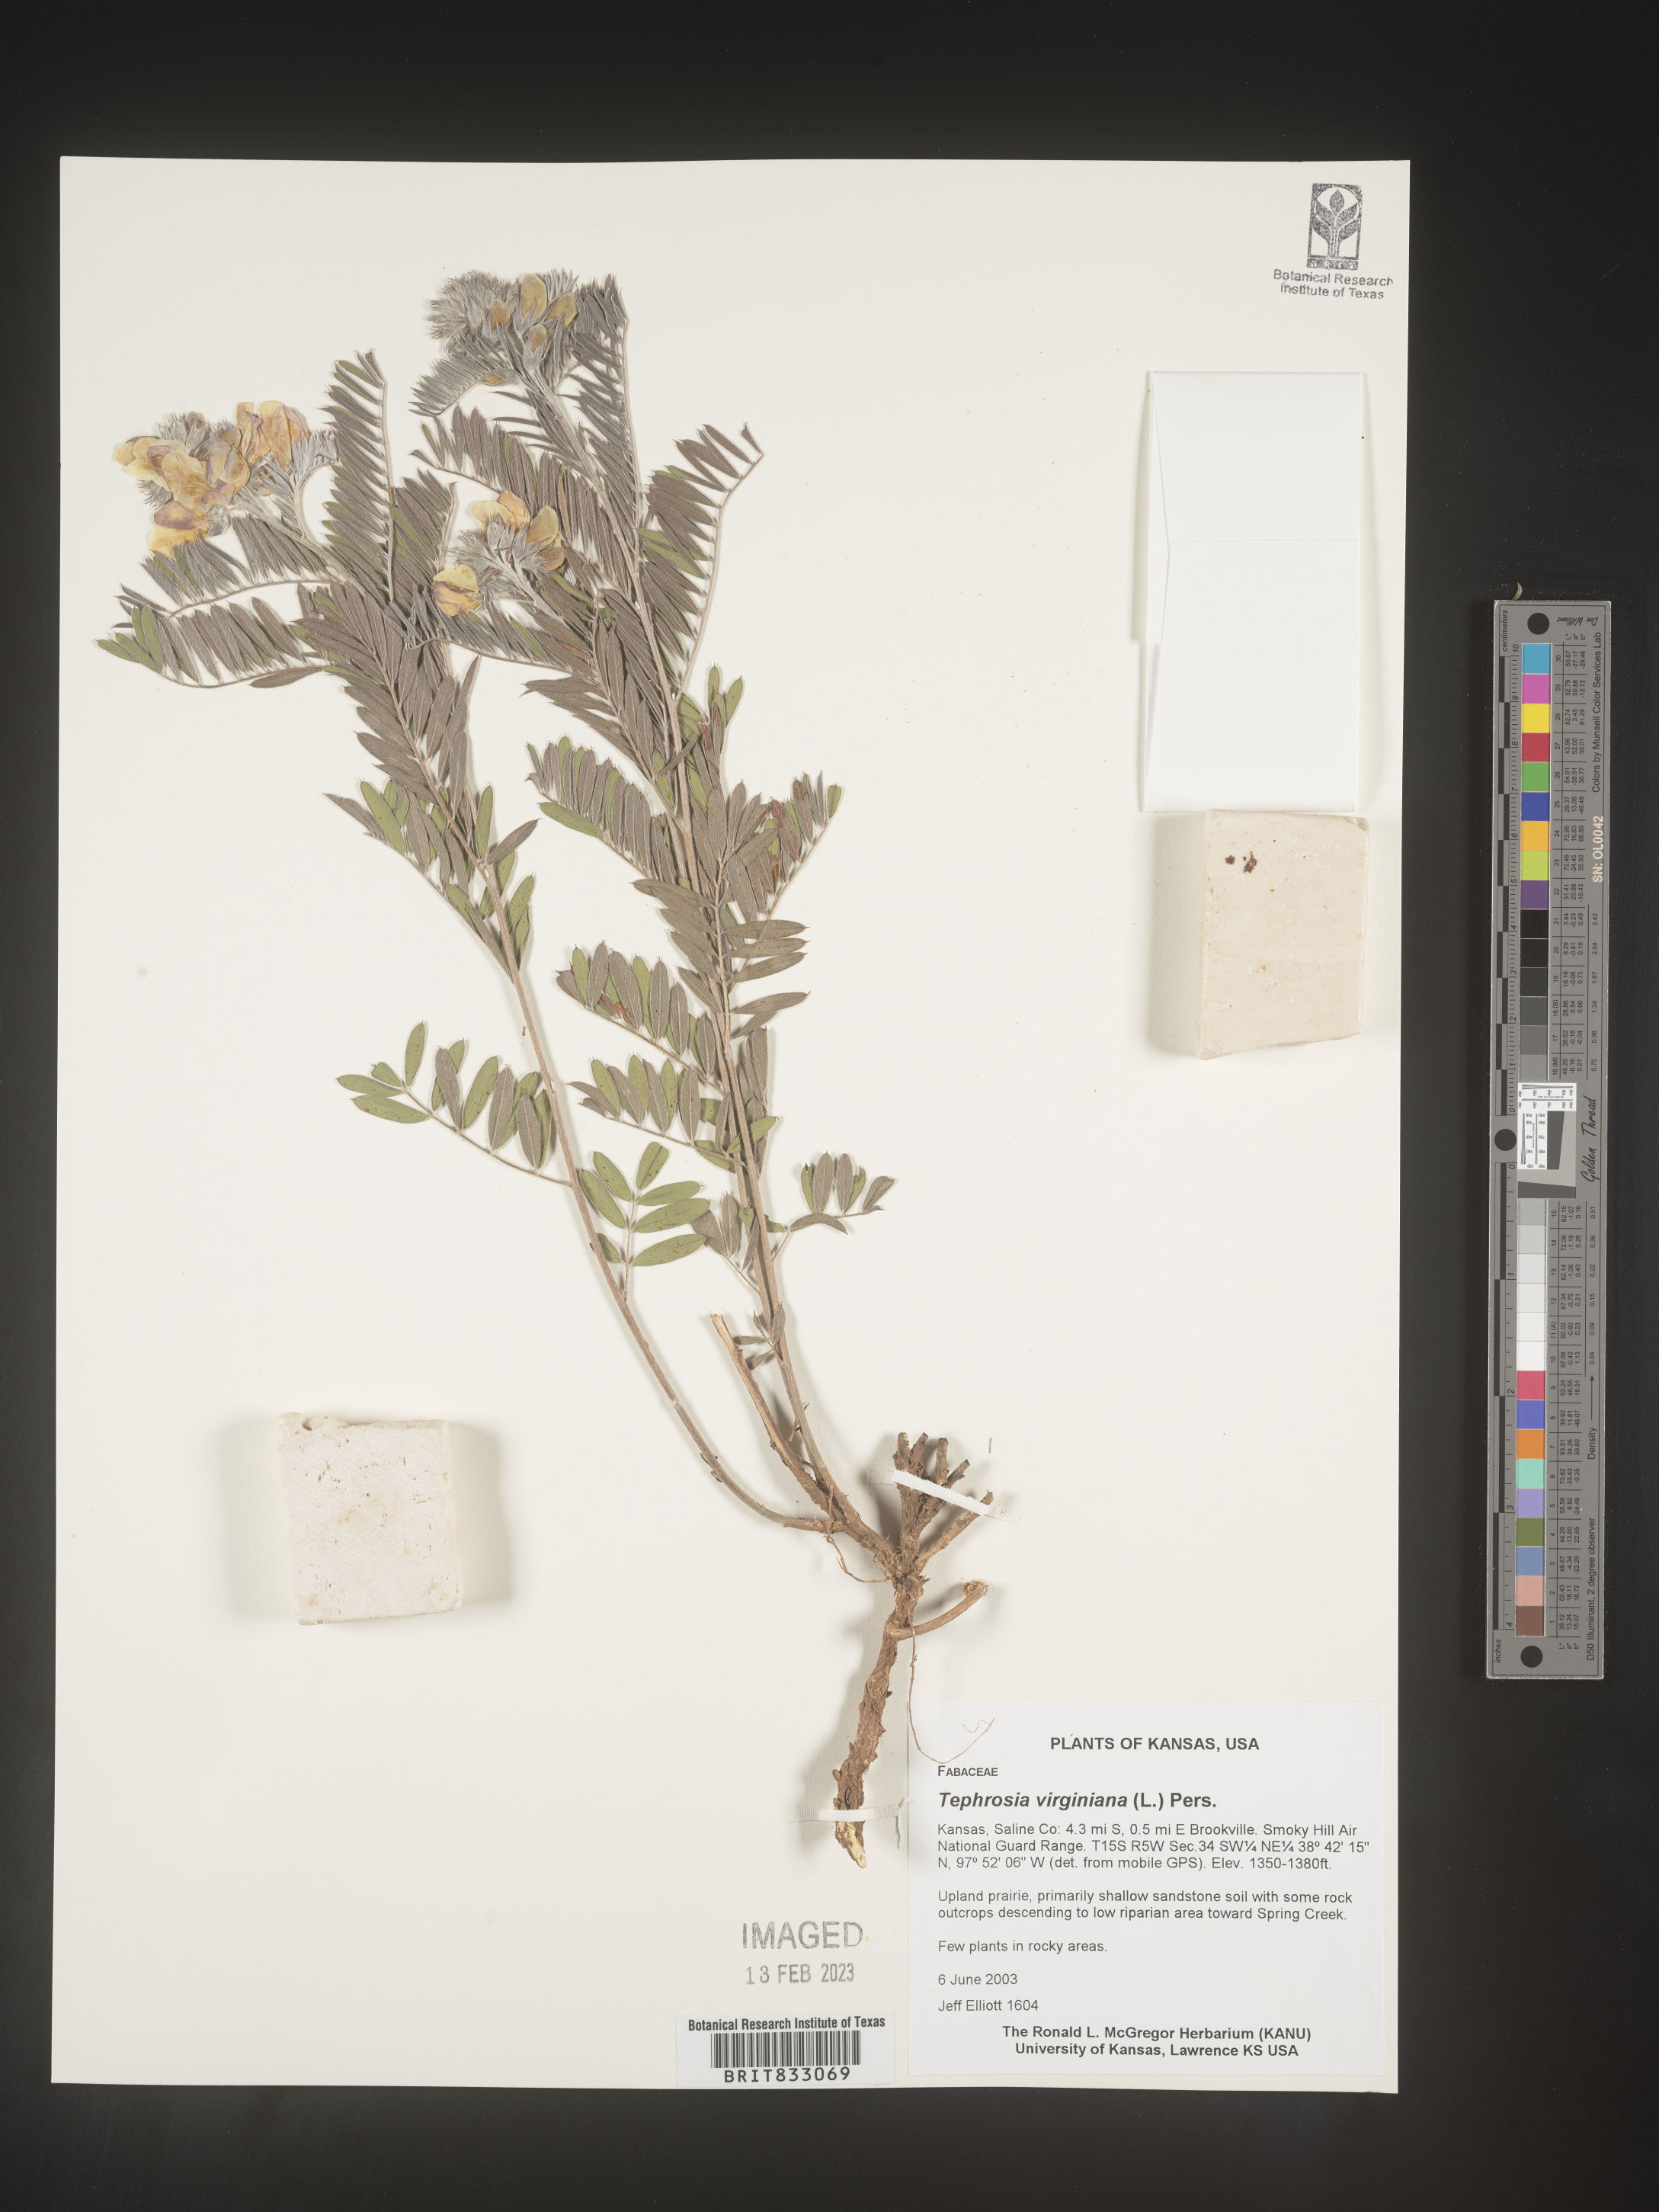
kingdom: Plantae
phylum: Tracheophyta
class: Magnoliopsida
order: Fabales
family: Fabaceae
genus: Tephrosia
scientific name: Tephrosia virginiana
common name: Rabbit-pea
